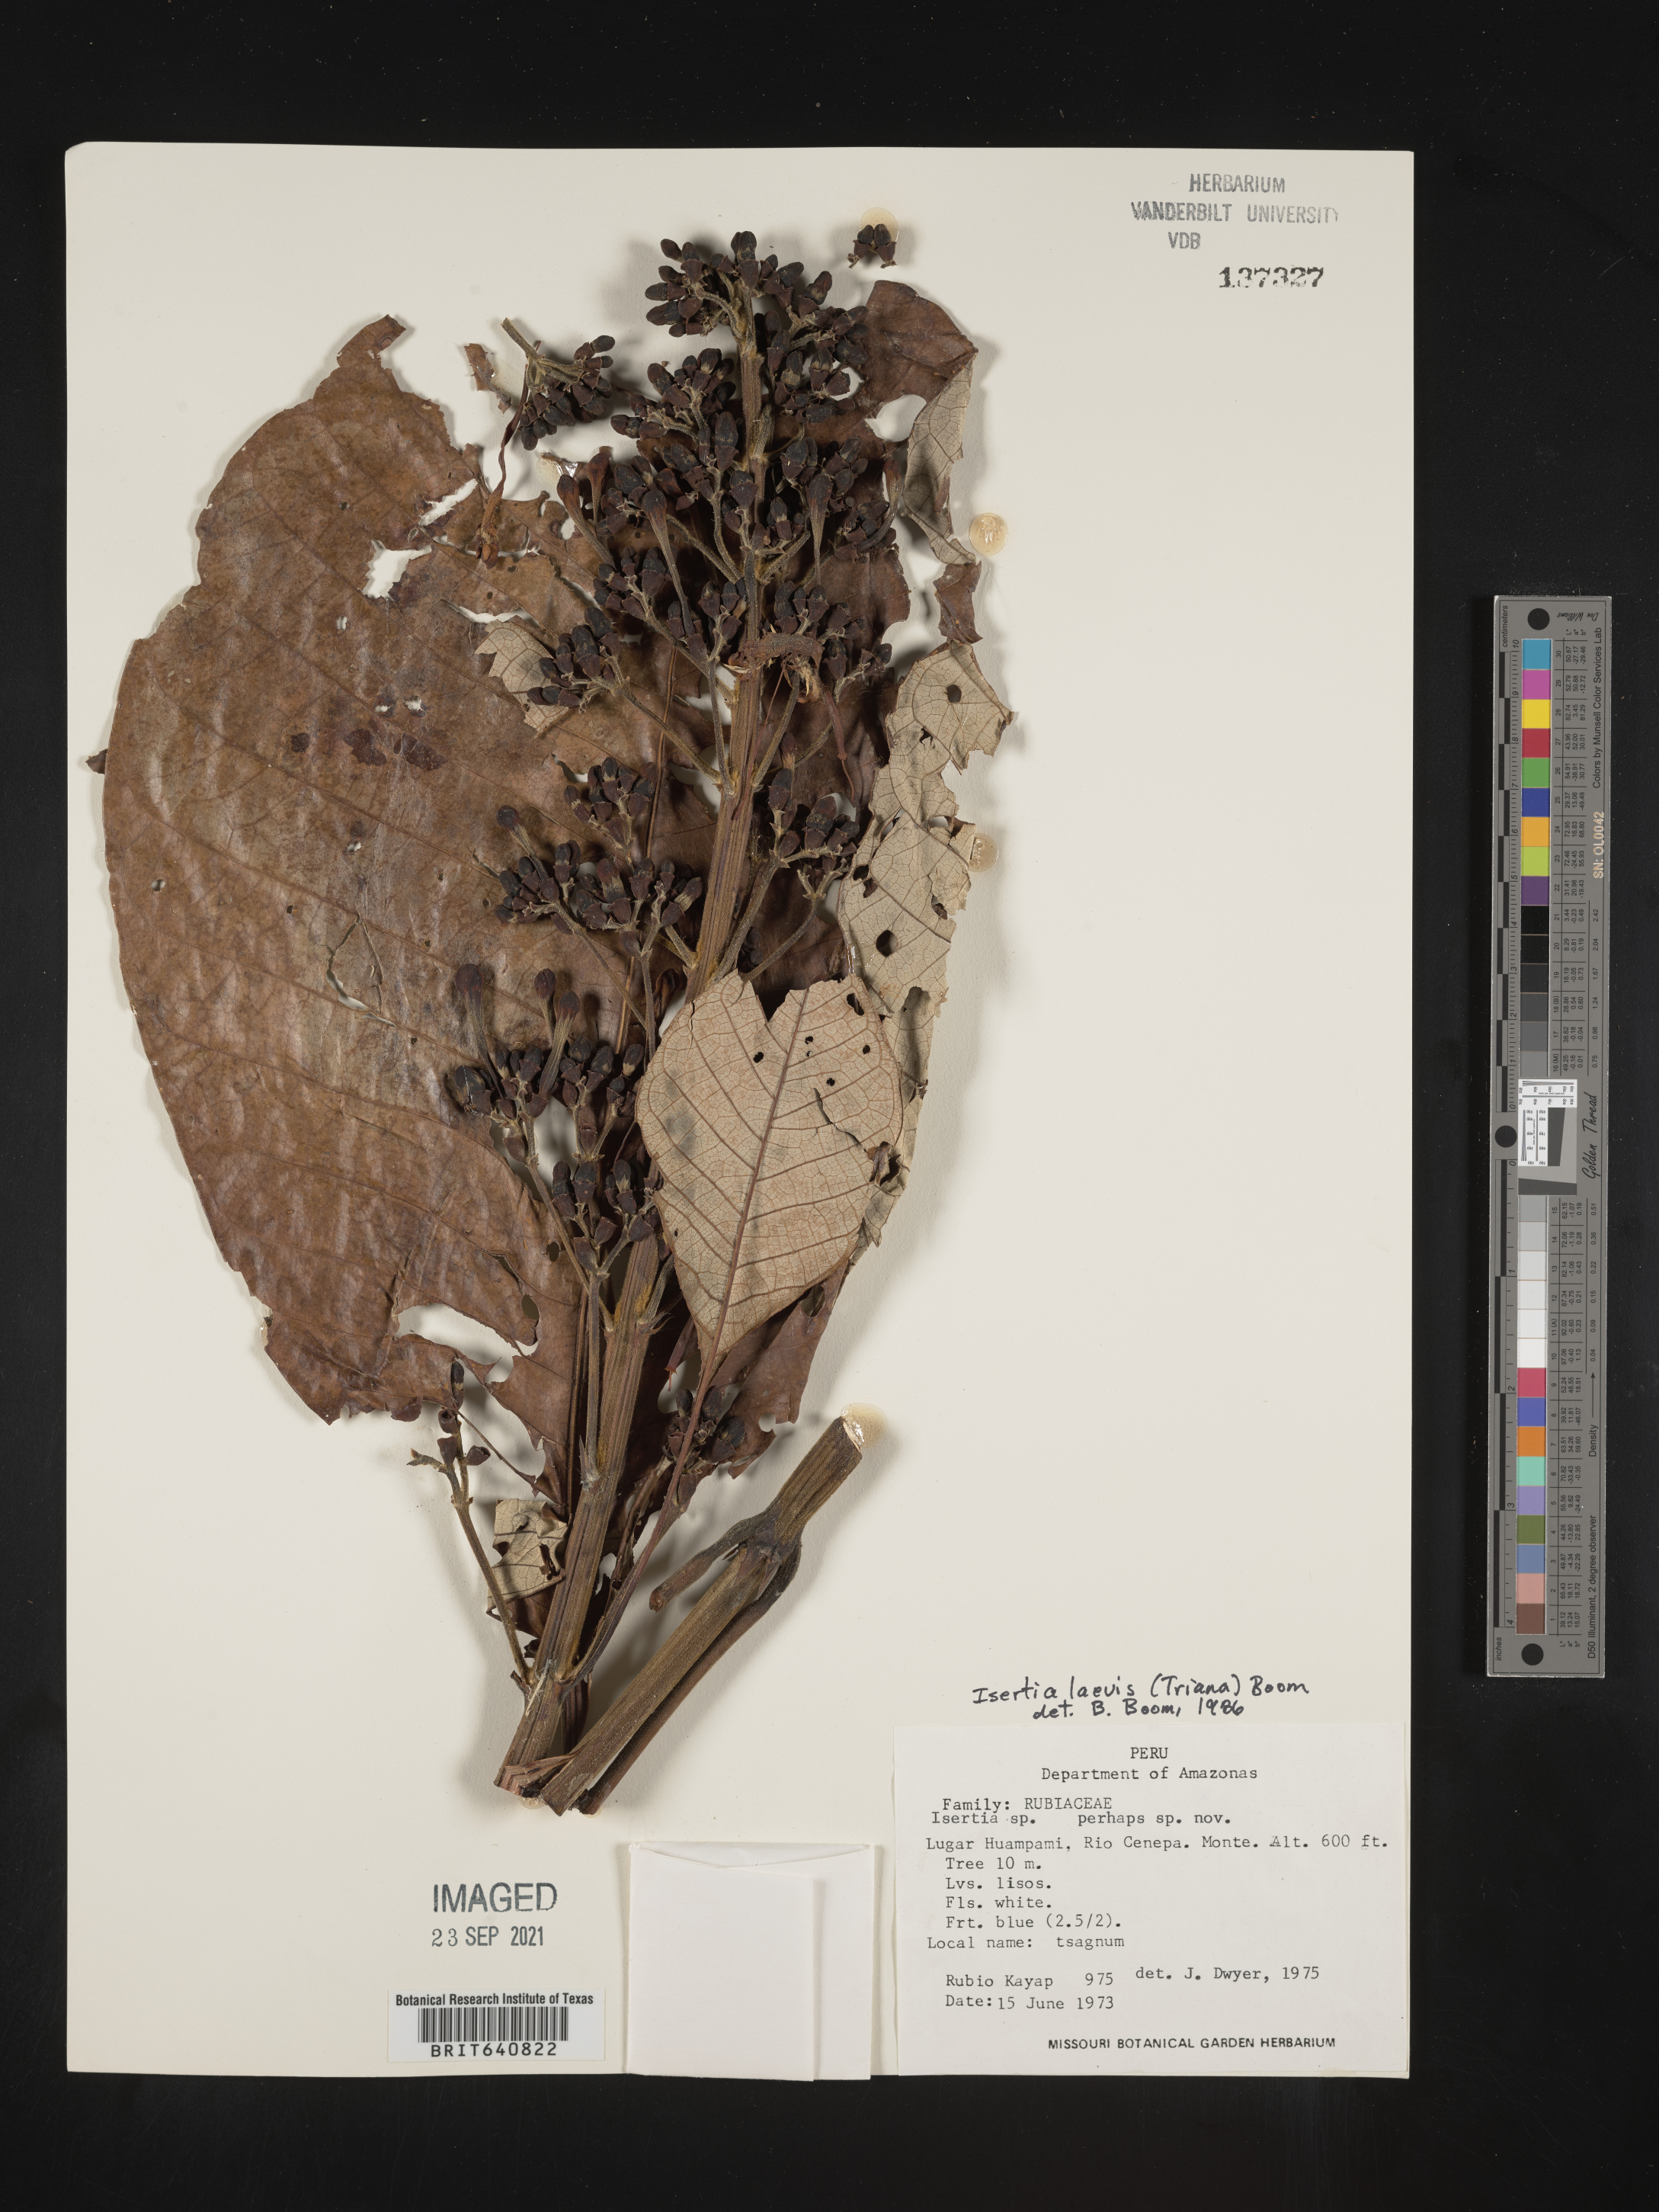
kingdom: Plantae
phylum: Tracheophyta
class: Magnoliopsida
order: Gentianales
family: Rubiaceae
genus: Isertia
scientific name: Isertia
